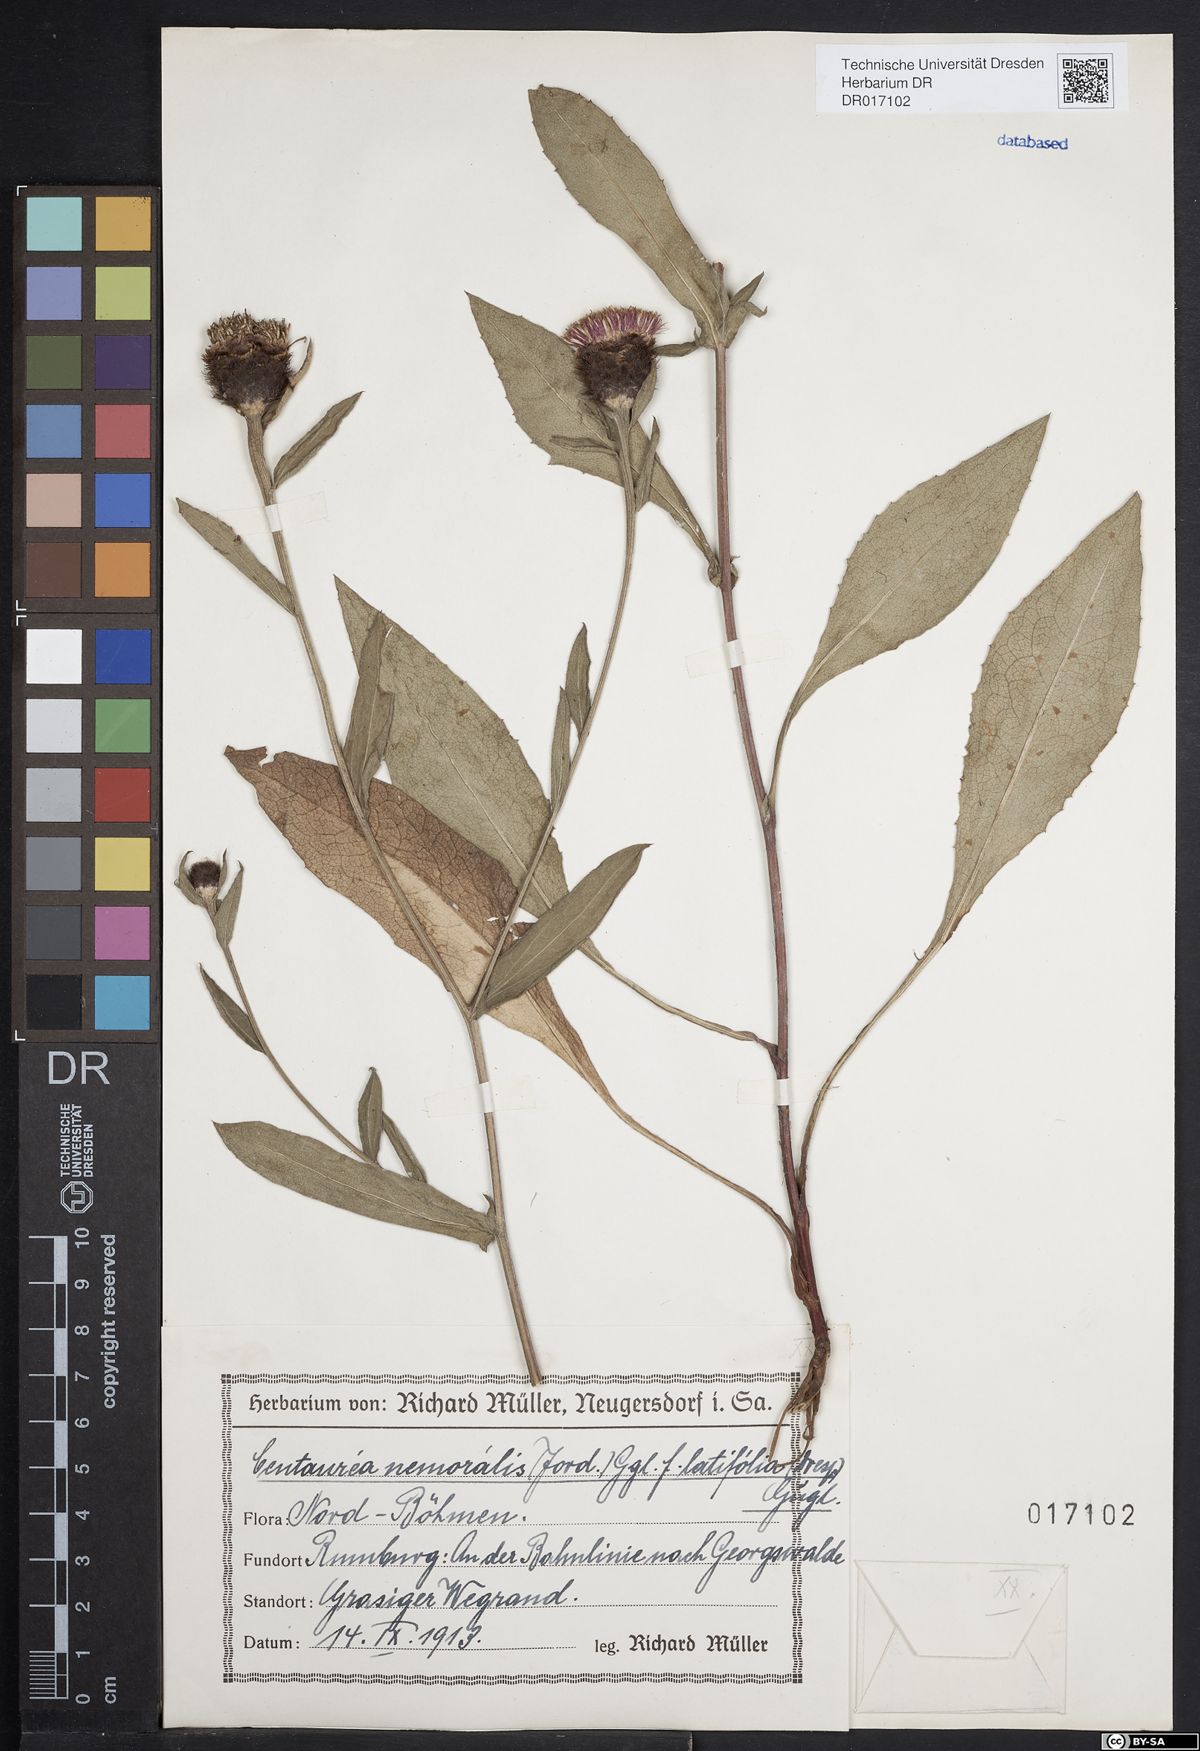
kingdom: Plantae
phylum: Tracheophyta
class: Magnoliopsida
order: Asterales
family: Asteraceae
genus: Centaurea
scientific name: Centaurea nigra
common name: Lesser knapweed
